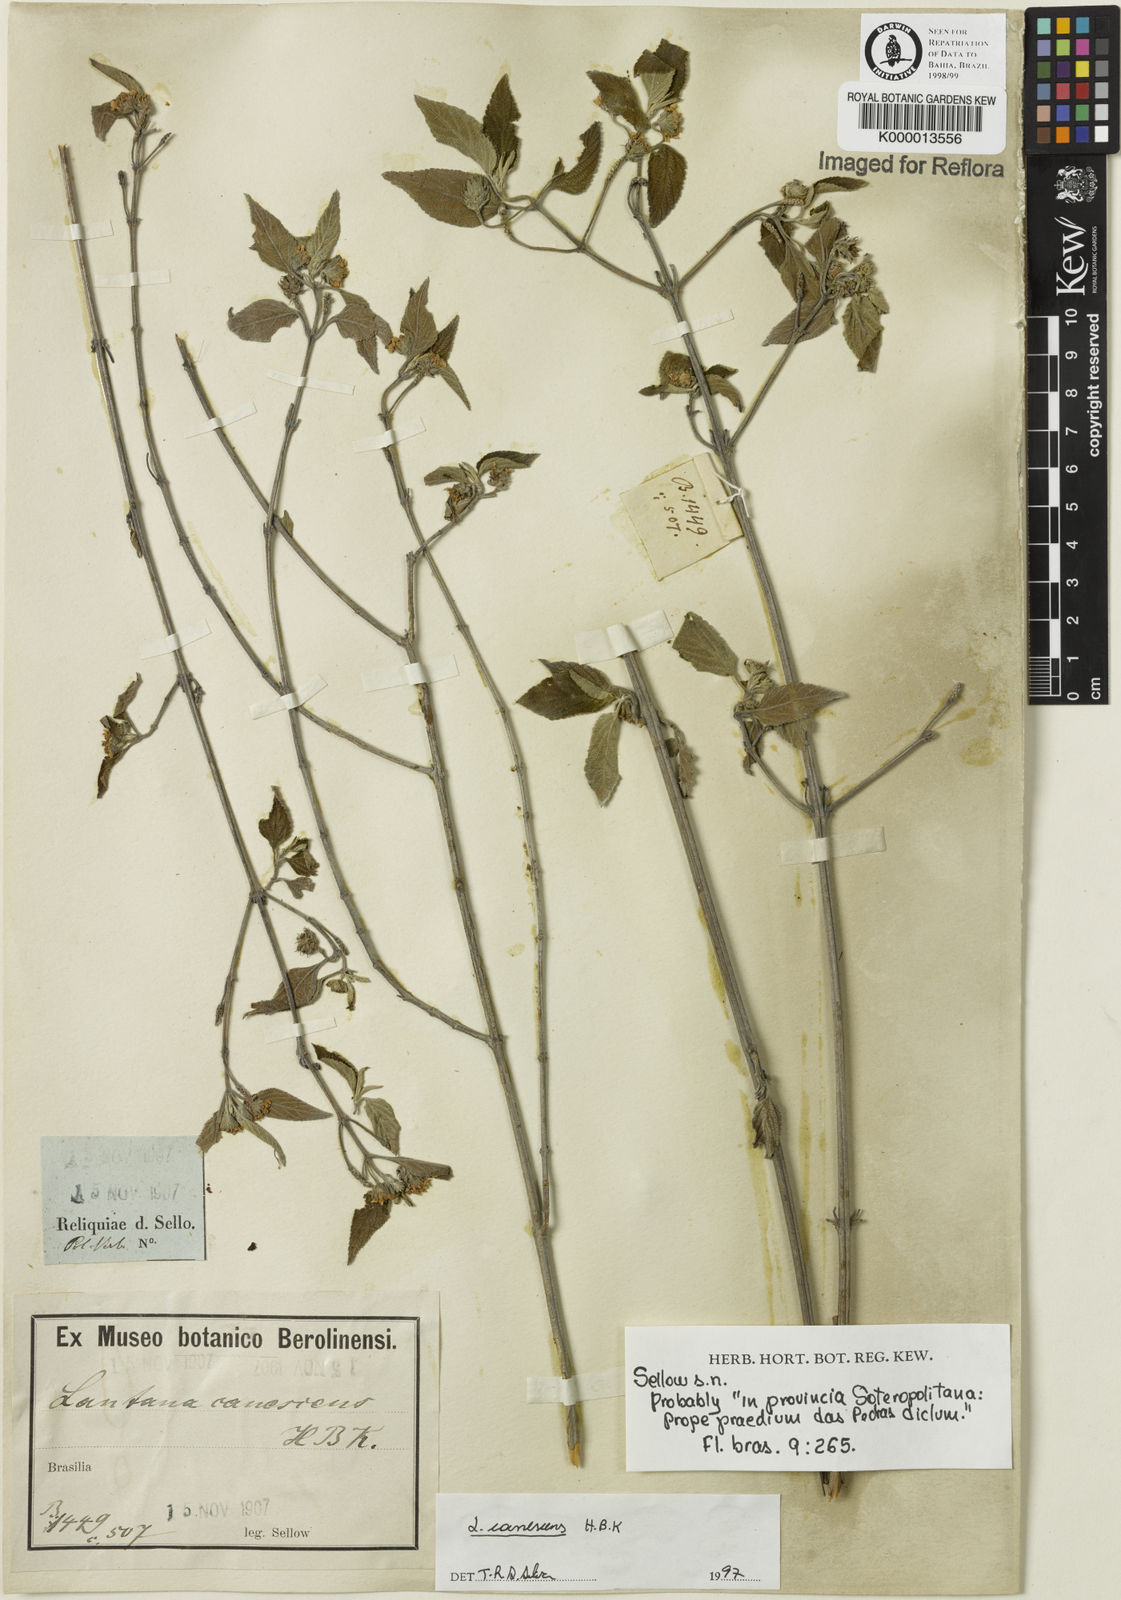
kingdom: Plantae
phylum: Tracheophyta
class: Magnoliopsida
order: Lamiales
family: Verbenaceae
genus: Lantana
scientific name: Lantana canescens
